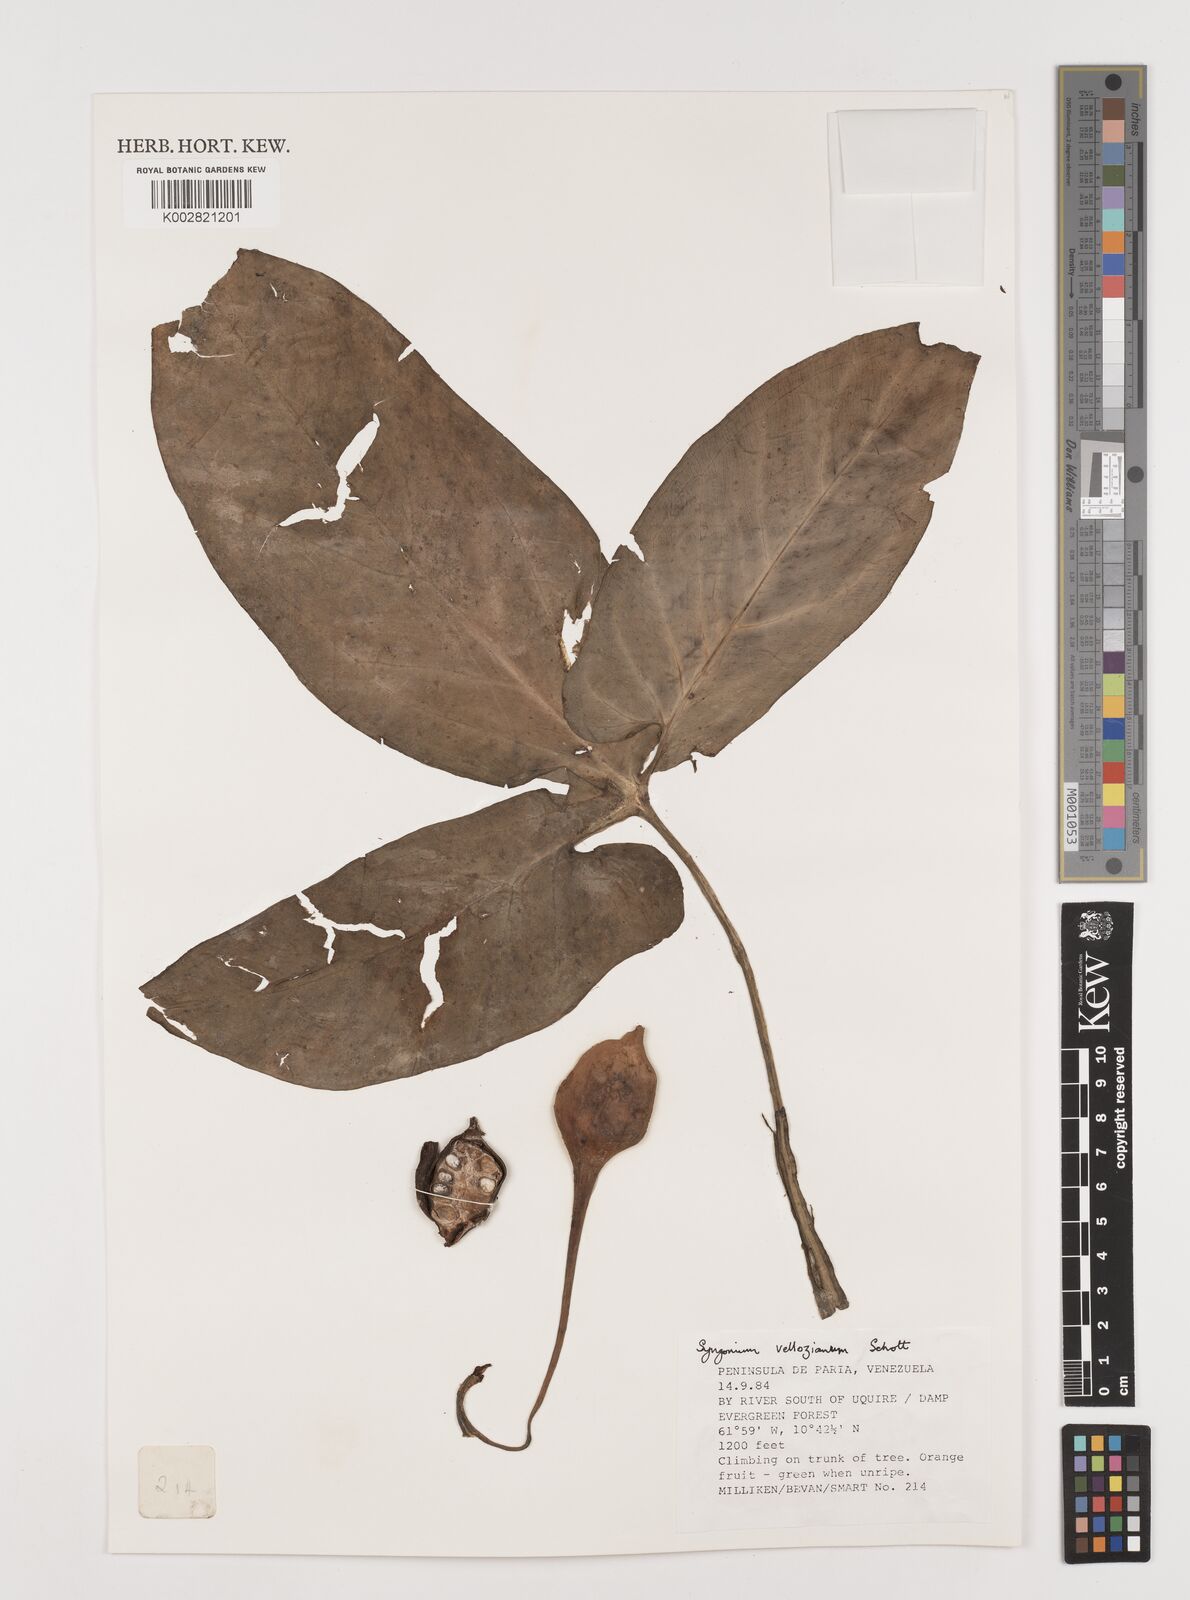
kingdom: Plantae
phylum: Tracheophyta
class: Liliopsida
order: Alismatales
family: Araceae
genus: Syngonium
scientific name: Syngonium podophyllum
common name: American evergreen
